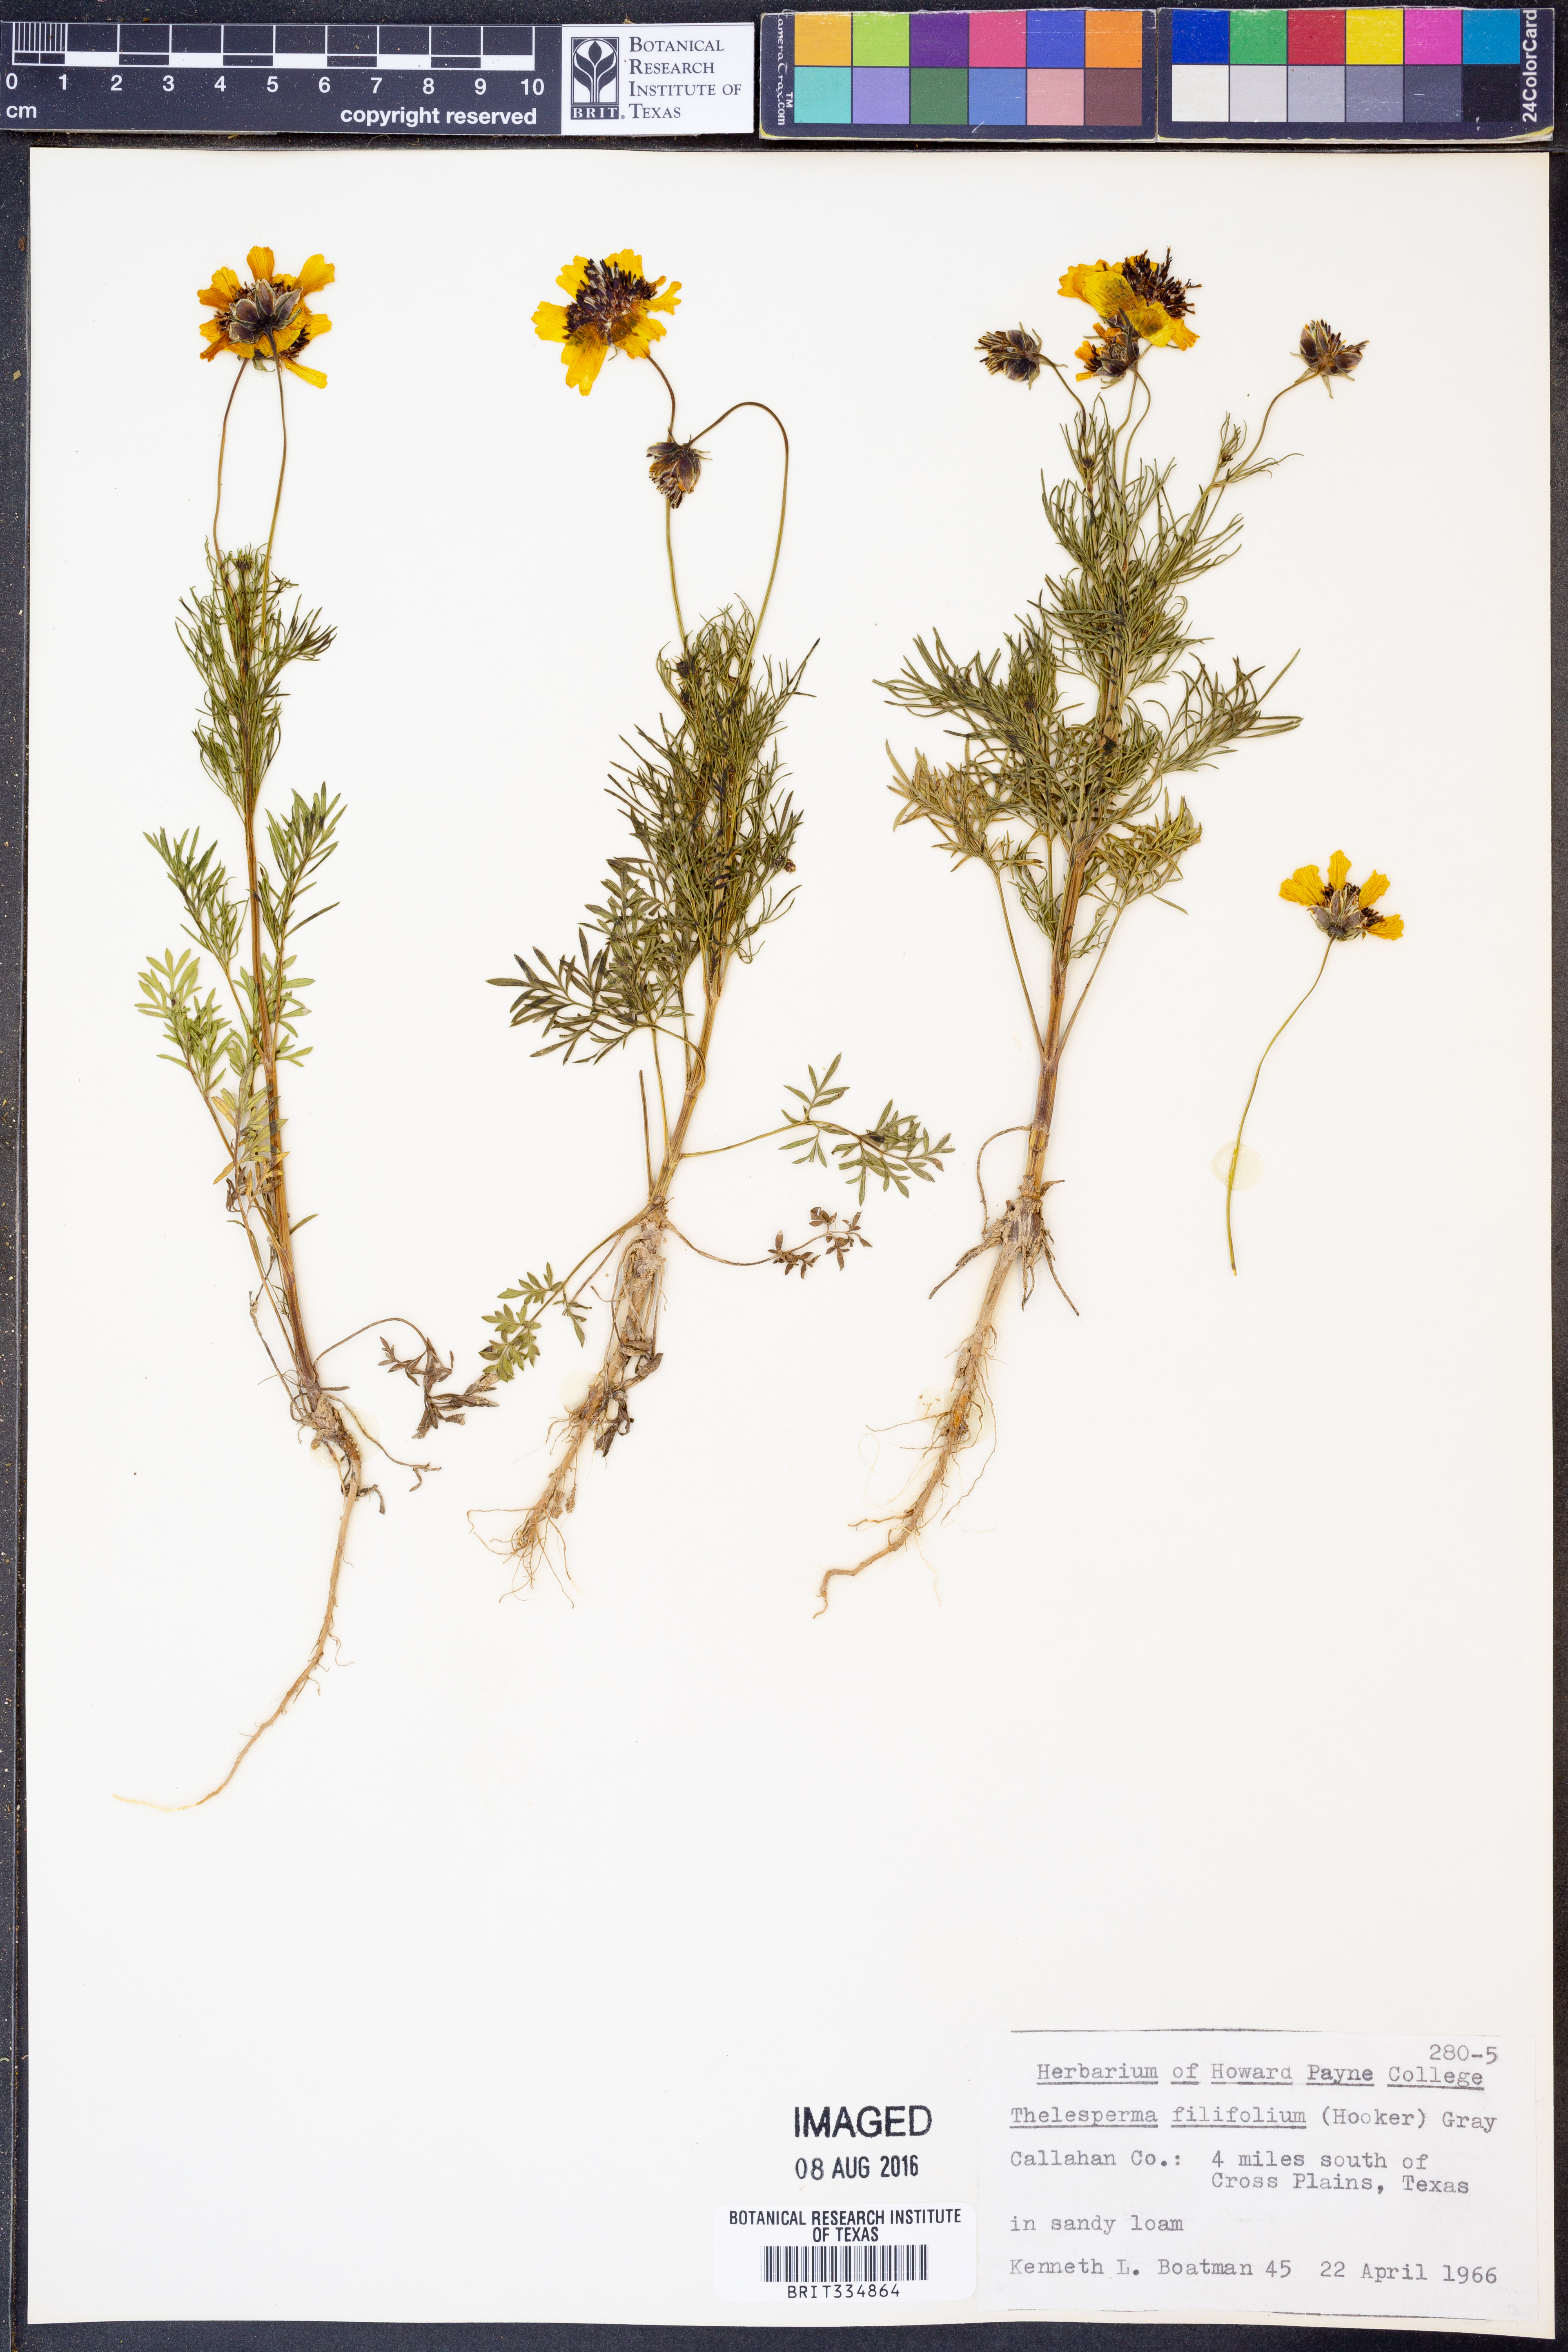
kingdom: Plantae
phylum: Tracheophyta
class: Magnoliopsida
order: Asterales
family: Asteraceae
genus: Thelesperma
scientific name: Thelesperma filifolium
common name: Stiff greenthread
